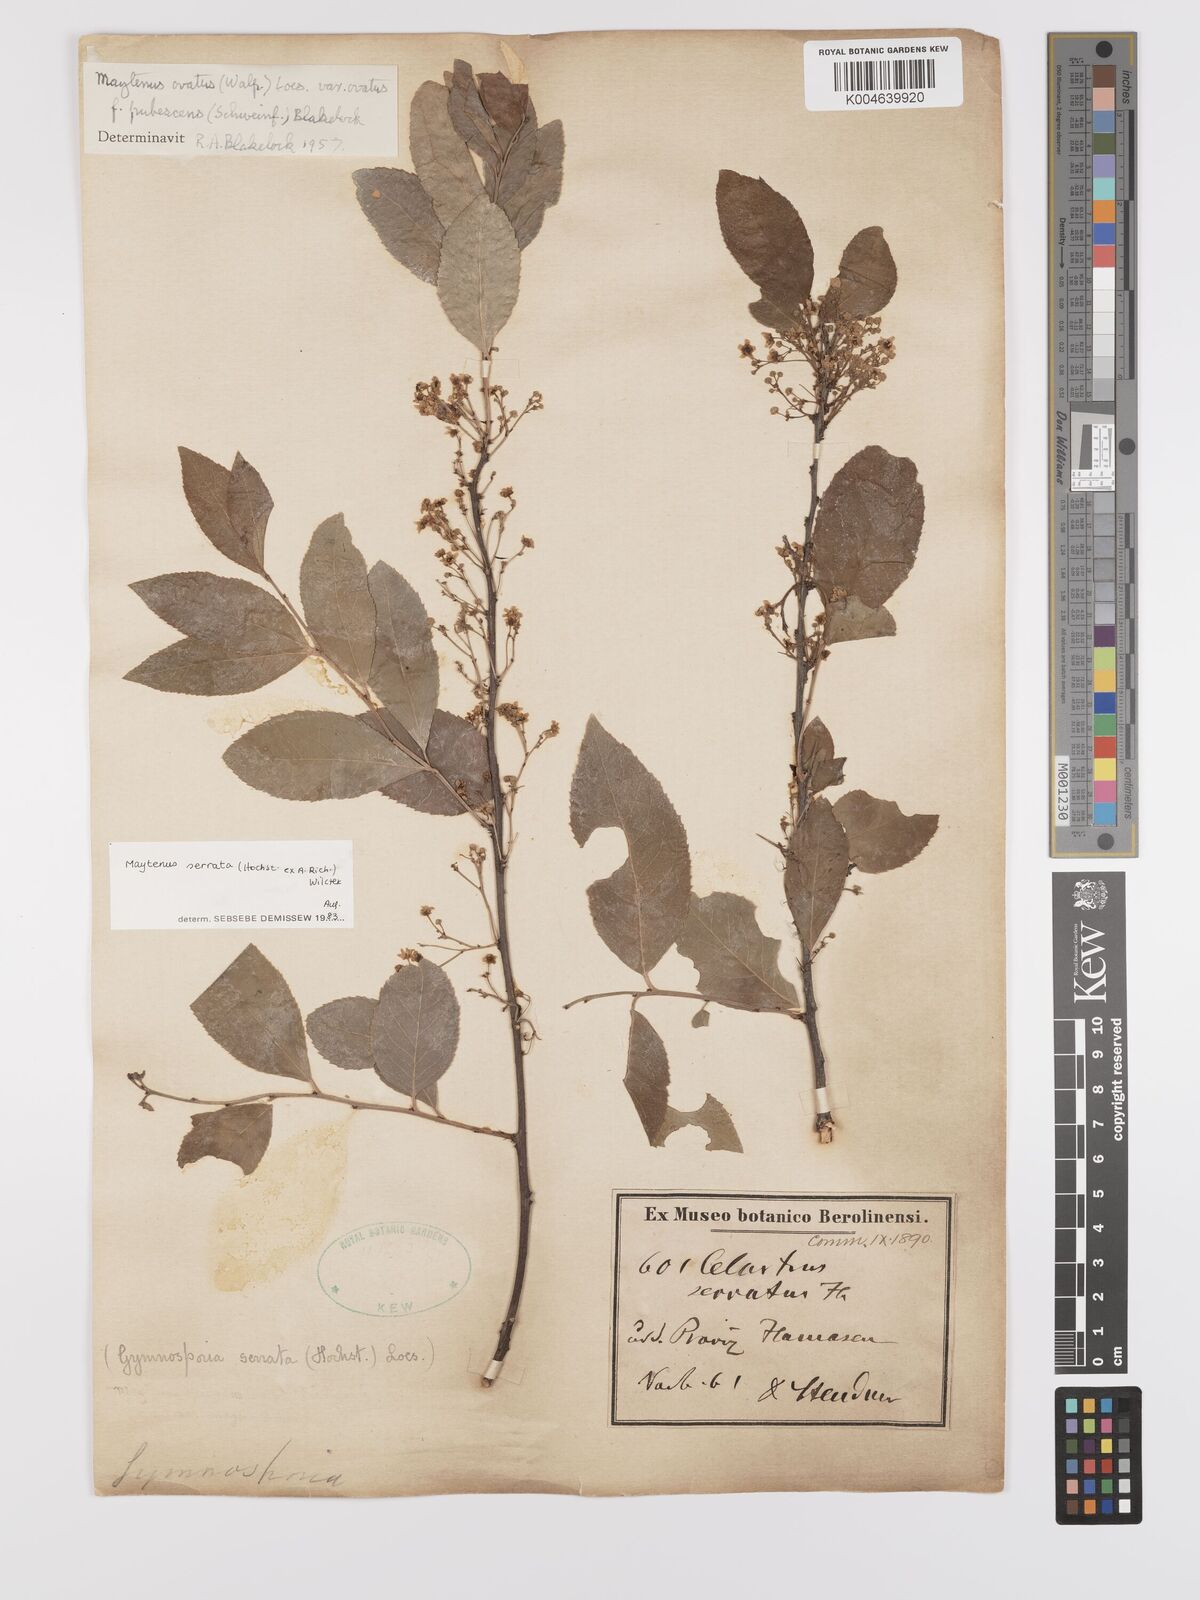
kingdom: Plantae
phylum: Tracheophyta
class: Magnoliopsida
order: Celastrales
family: Celastraceae
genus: Gymnosporia
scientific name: Gymnosporia serrata
